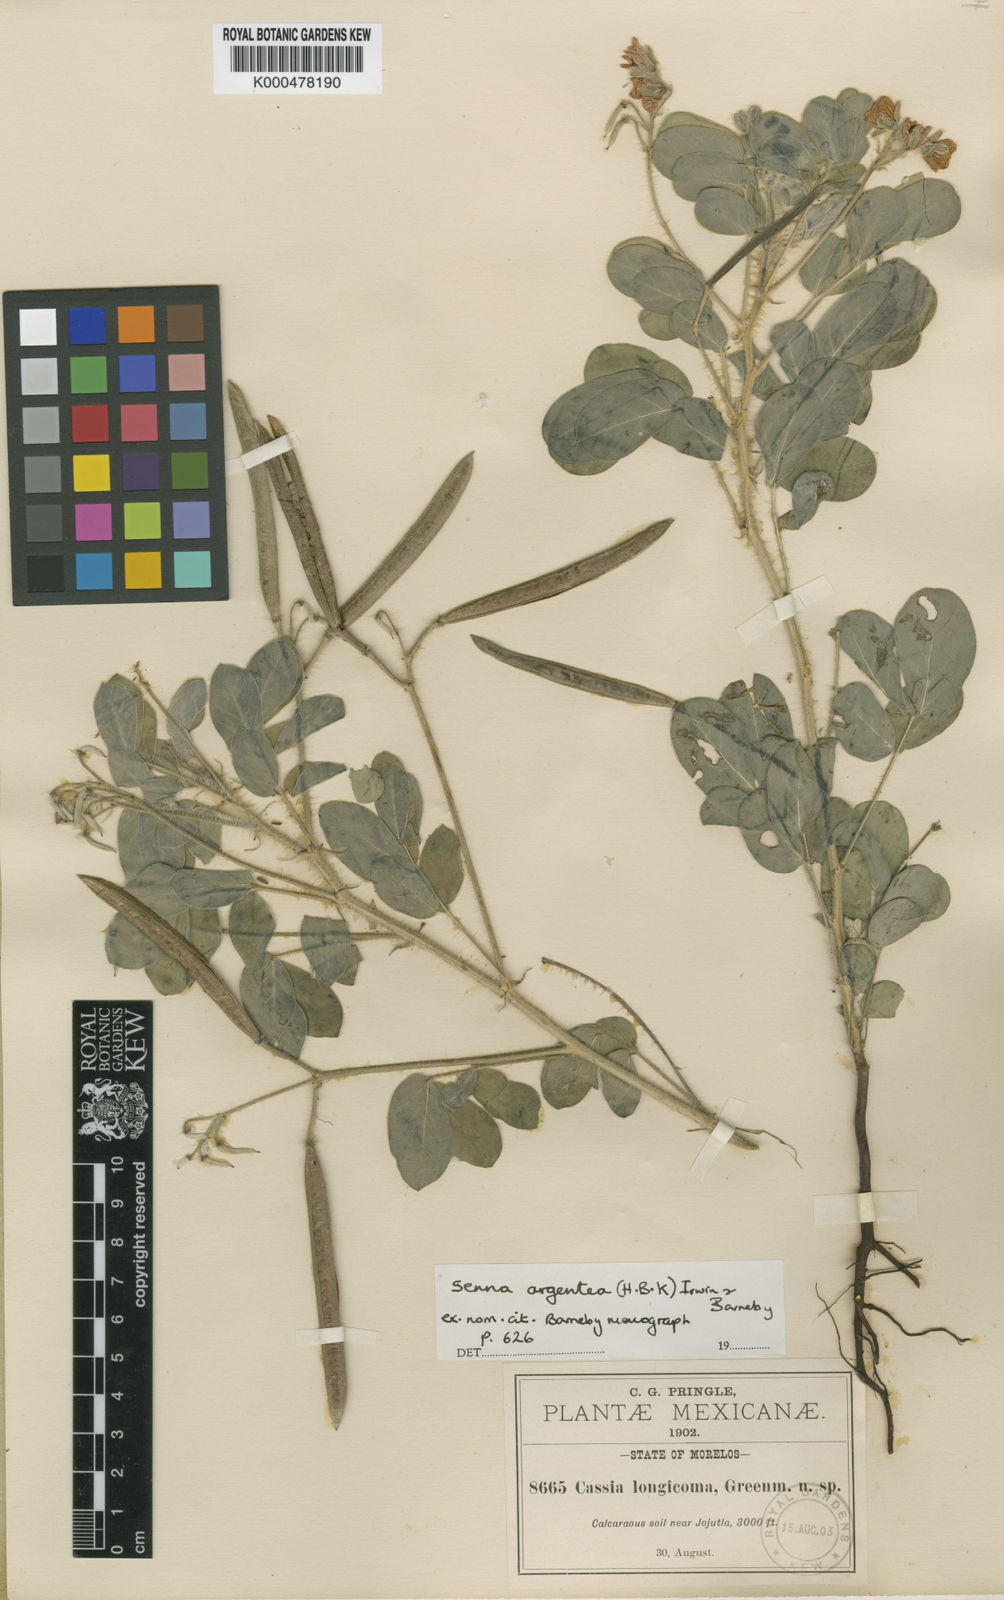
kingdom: Plantae
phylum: Tracheophyta
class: Magnoliopsida
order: Fabales
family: Fabaceae
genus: Senna
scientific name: Senna argentea
